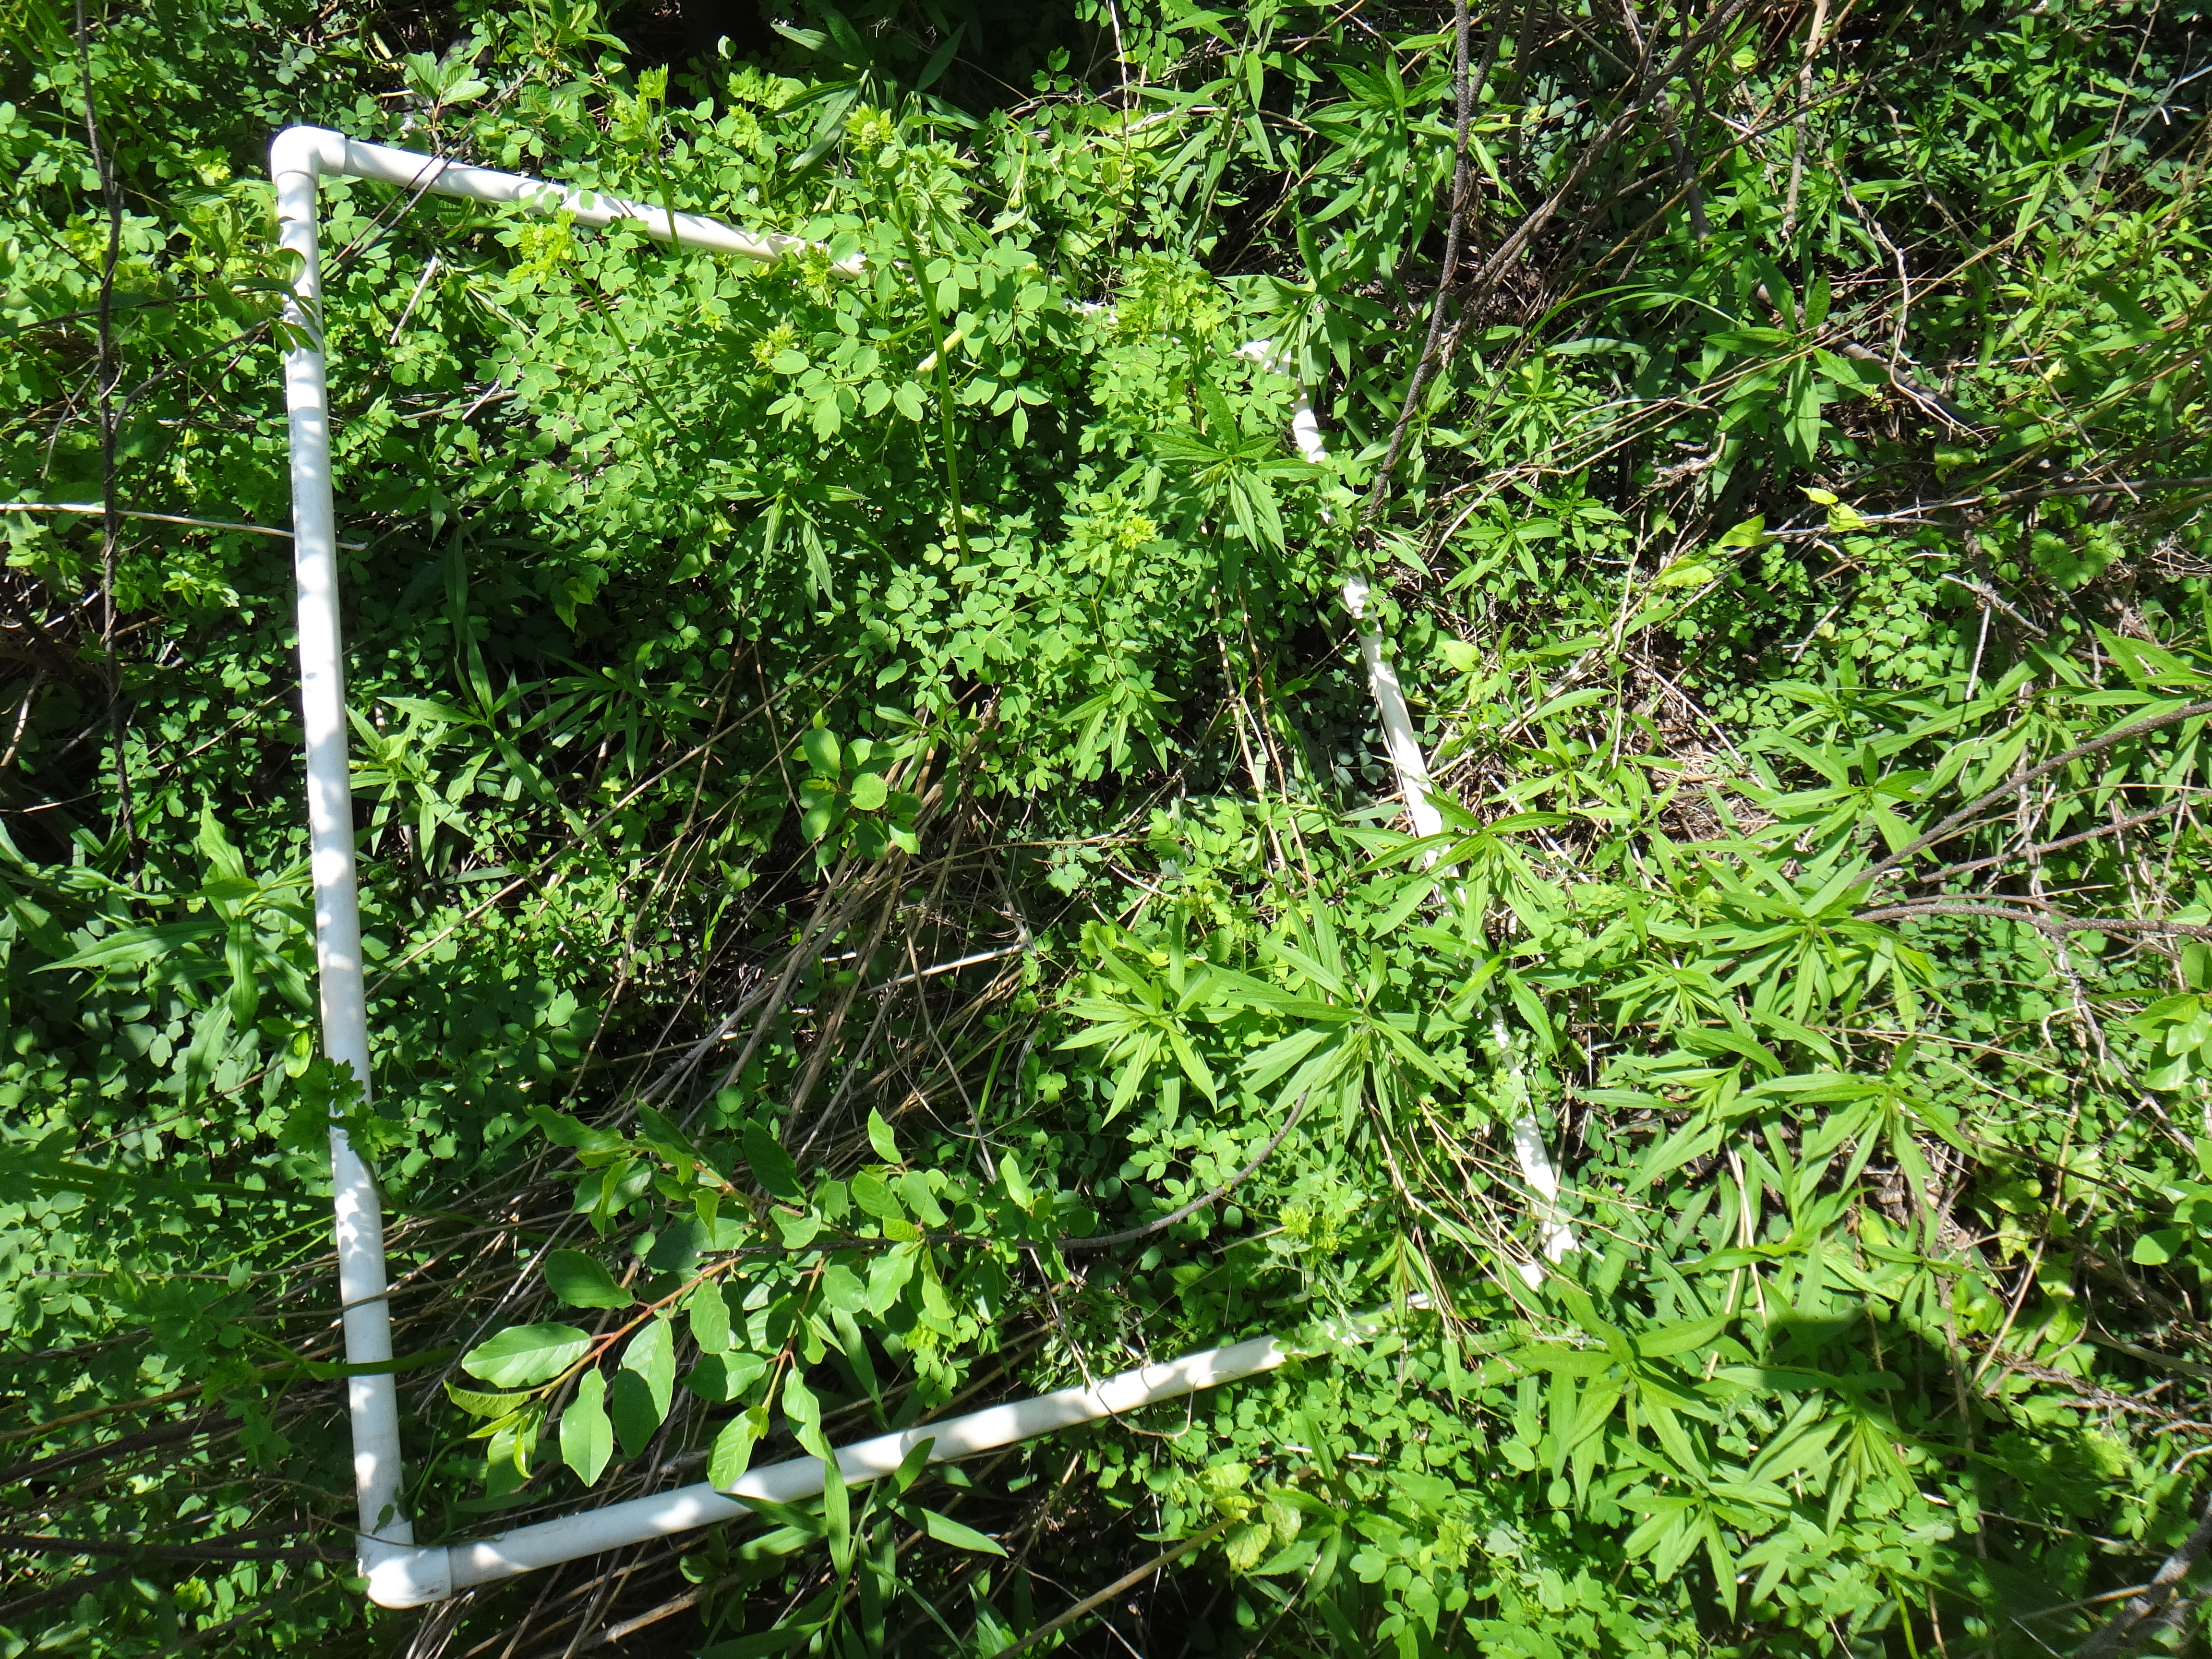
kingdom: Plantae
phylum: Tracheophyta
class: Liliopsida
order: Asparagales
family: Asparagaceae
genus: Maianthemum
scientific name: Maianthemum stellatum
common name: Little false solomon's seal
